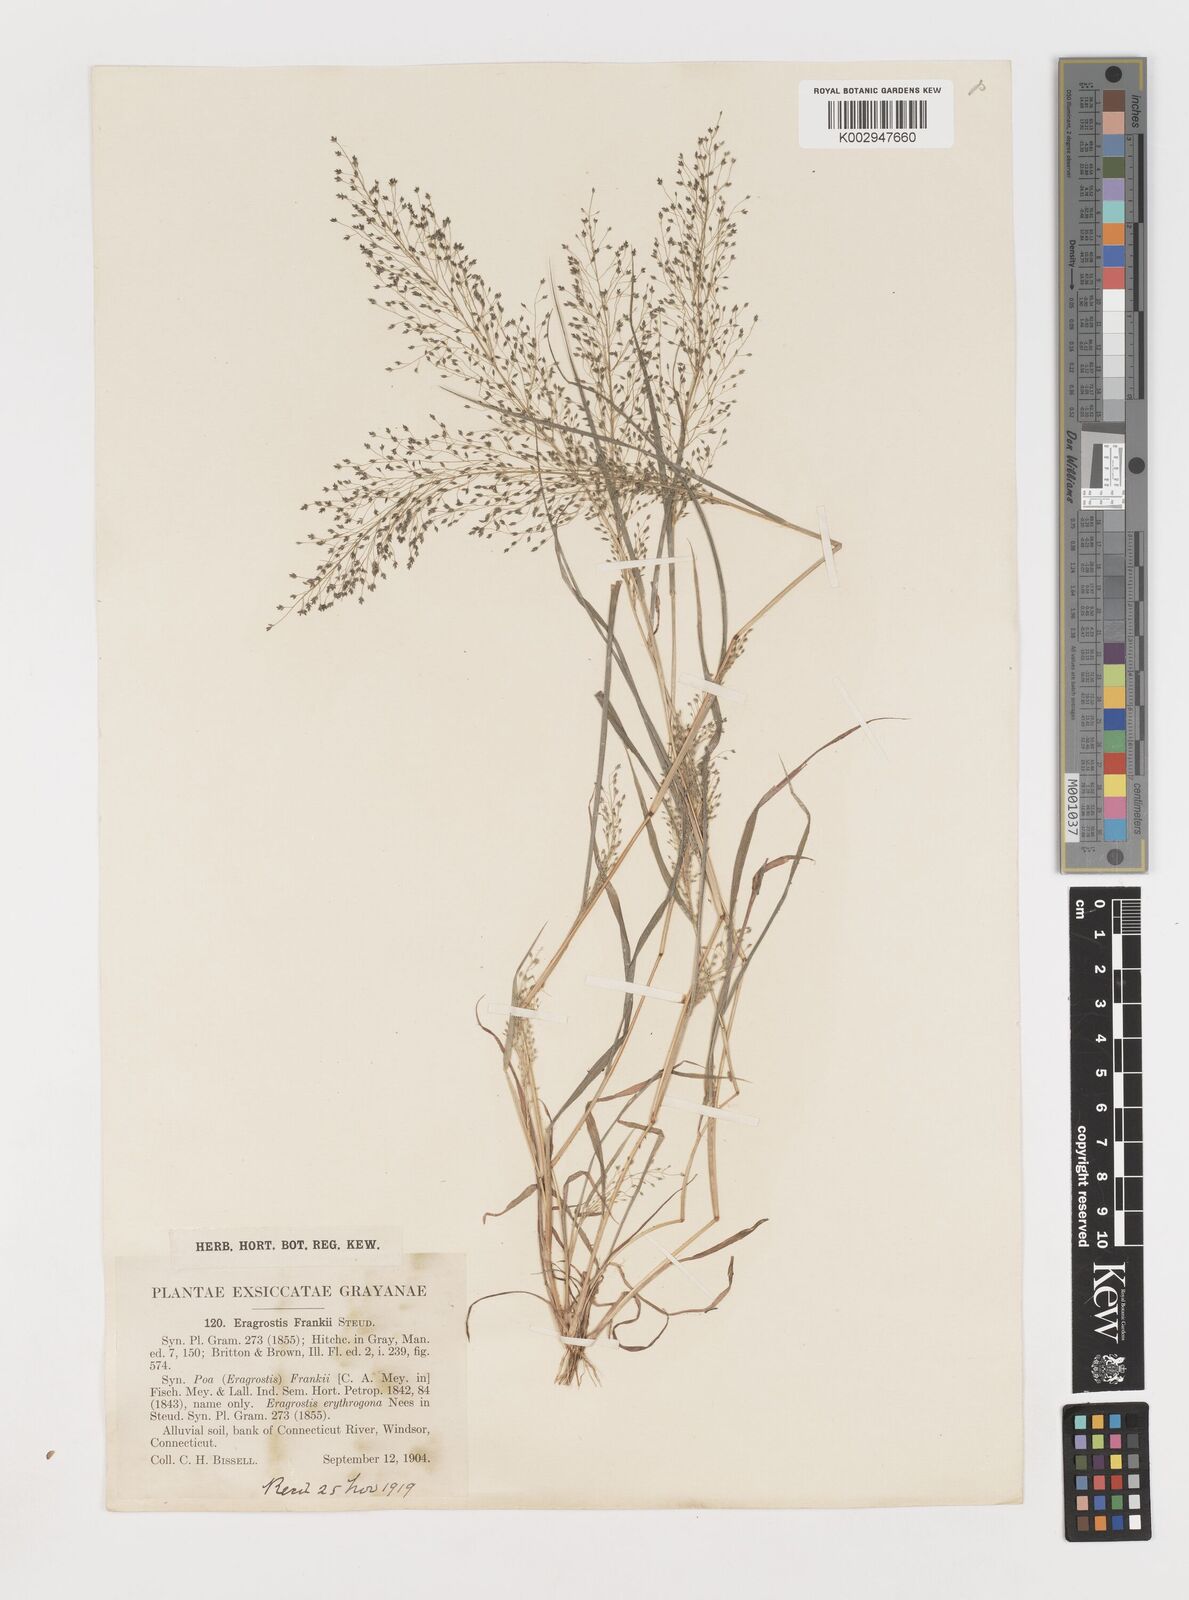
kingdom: Plantae
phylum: Tracheophyta
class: Liliopsida
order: Poales
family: Poaceae
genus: Eragrostis
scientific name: Eragrostis frankii
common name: Frank's lovegrass
